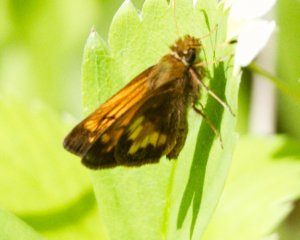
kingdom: Animalia
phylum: Arthropoda
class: Insecta
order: Lepidoptera
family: Hesperiidae
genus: Lon
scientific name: Lon hobomok
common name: Hobomok Skipper
